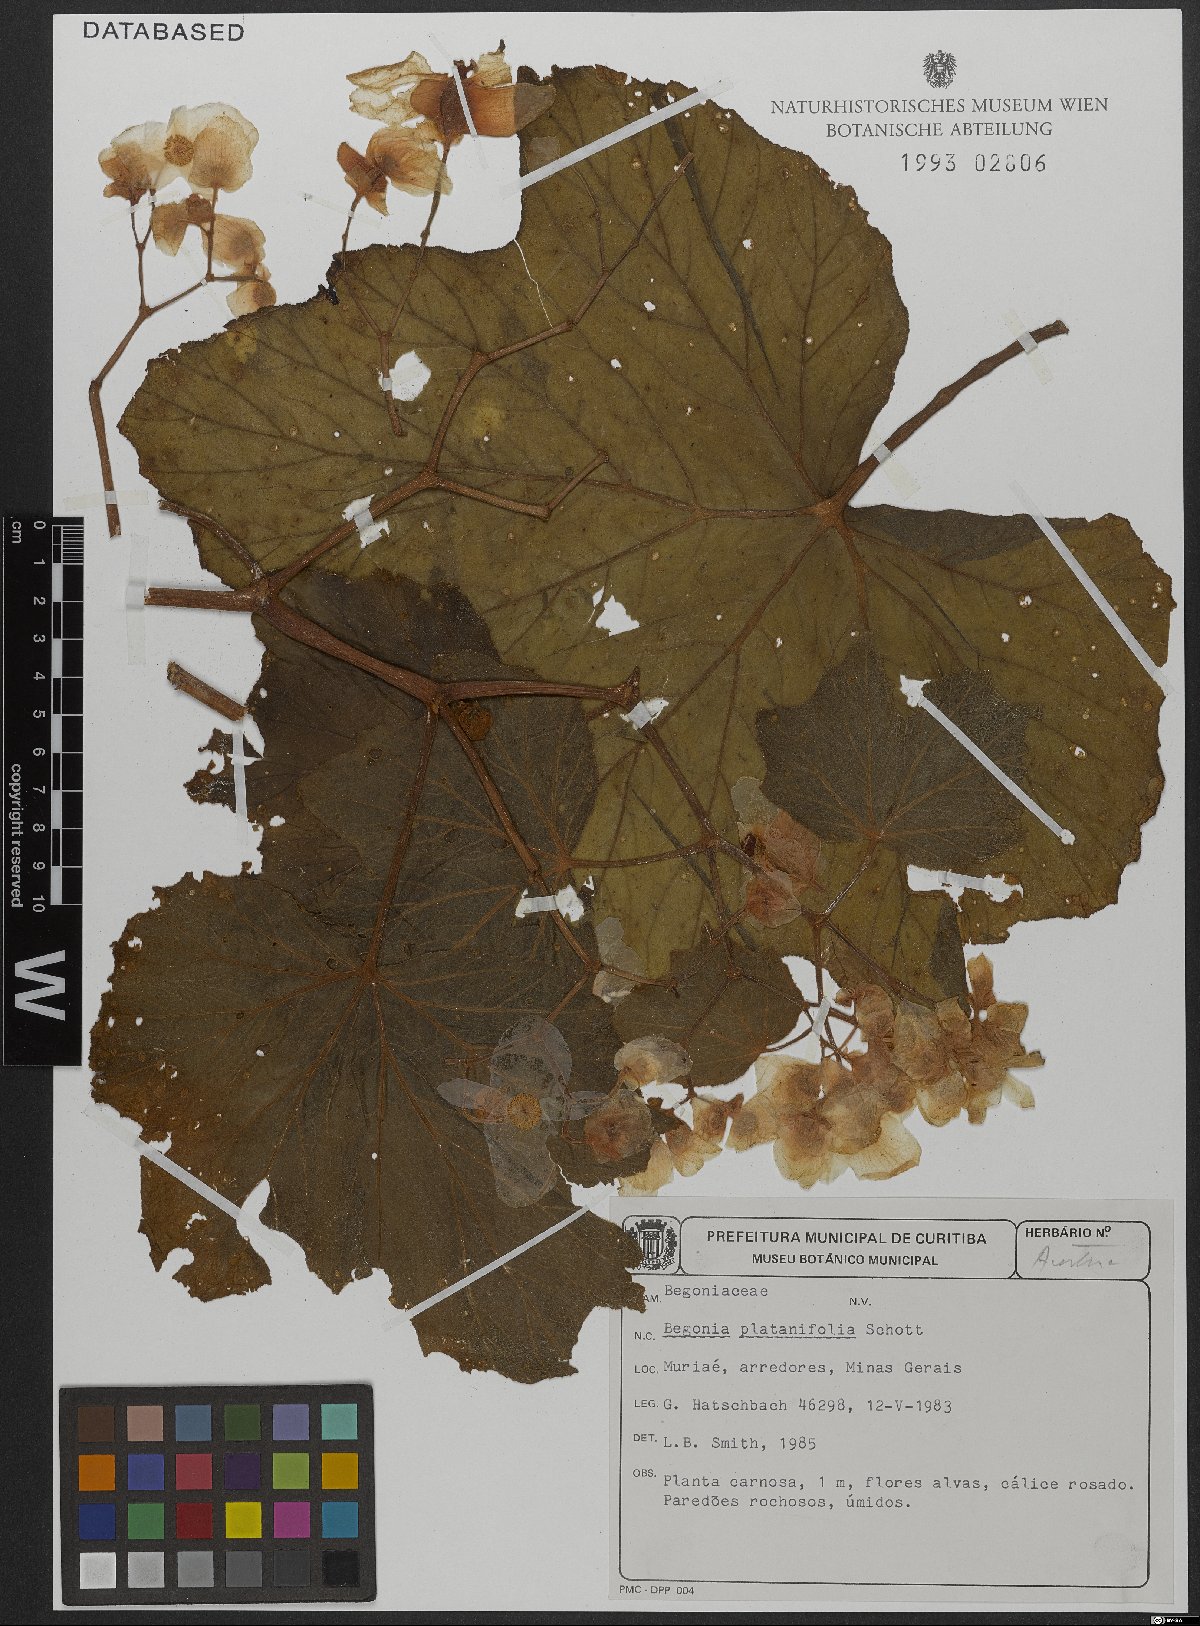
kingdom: Plantae
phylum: Tracheophyta
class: Magnoliopsida
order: Cucurbitales
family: Begoniaceae
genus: Begonia
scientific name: Begonia platanifolia
